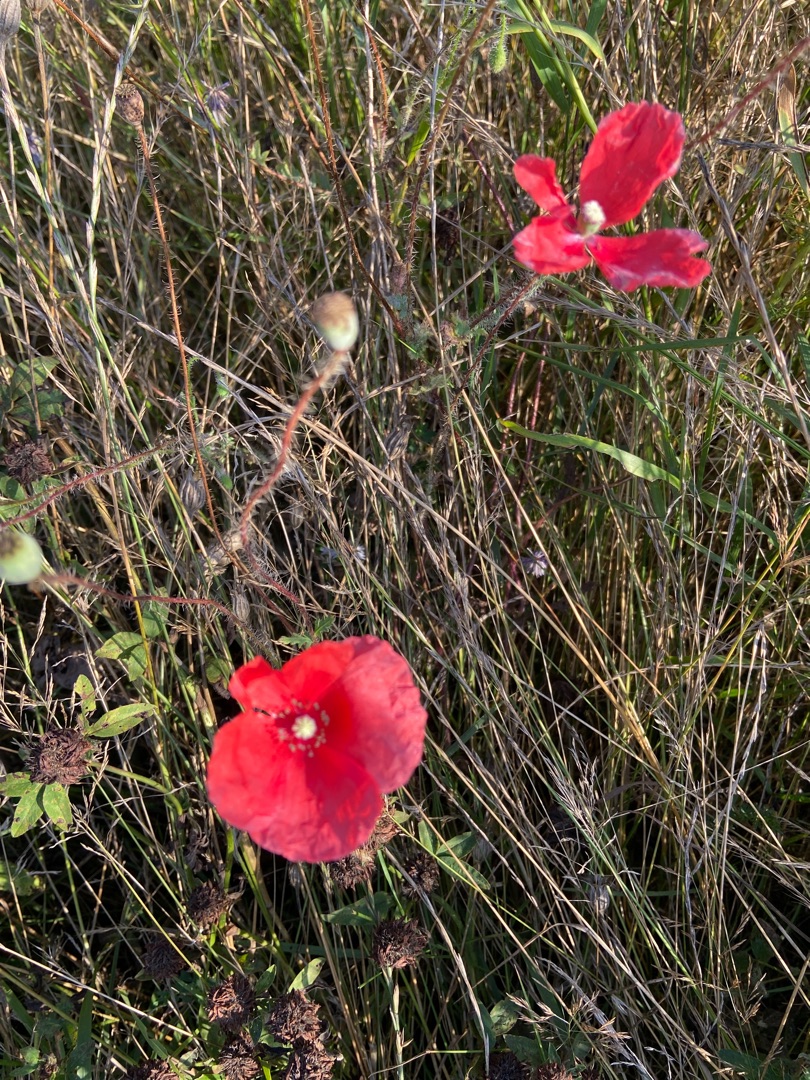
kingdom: Plantae
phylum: Tracheophyta
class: Magnoliopsida
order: Ranunculales
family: Papaveraceae
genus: Papaver
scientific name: Papaver rhoeas
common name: Korn-valmue
